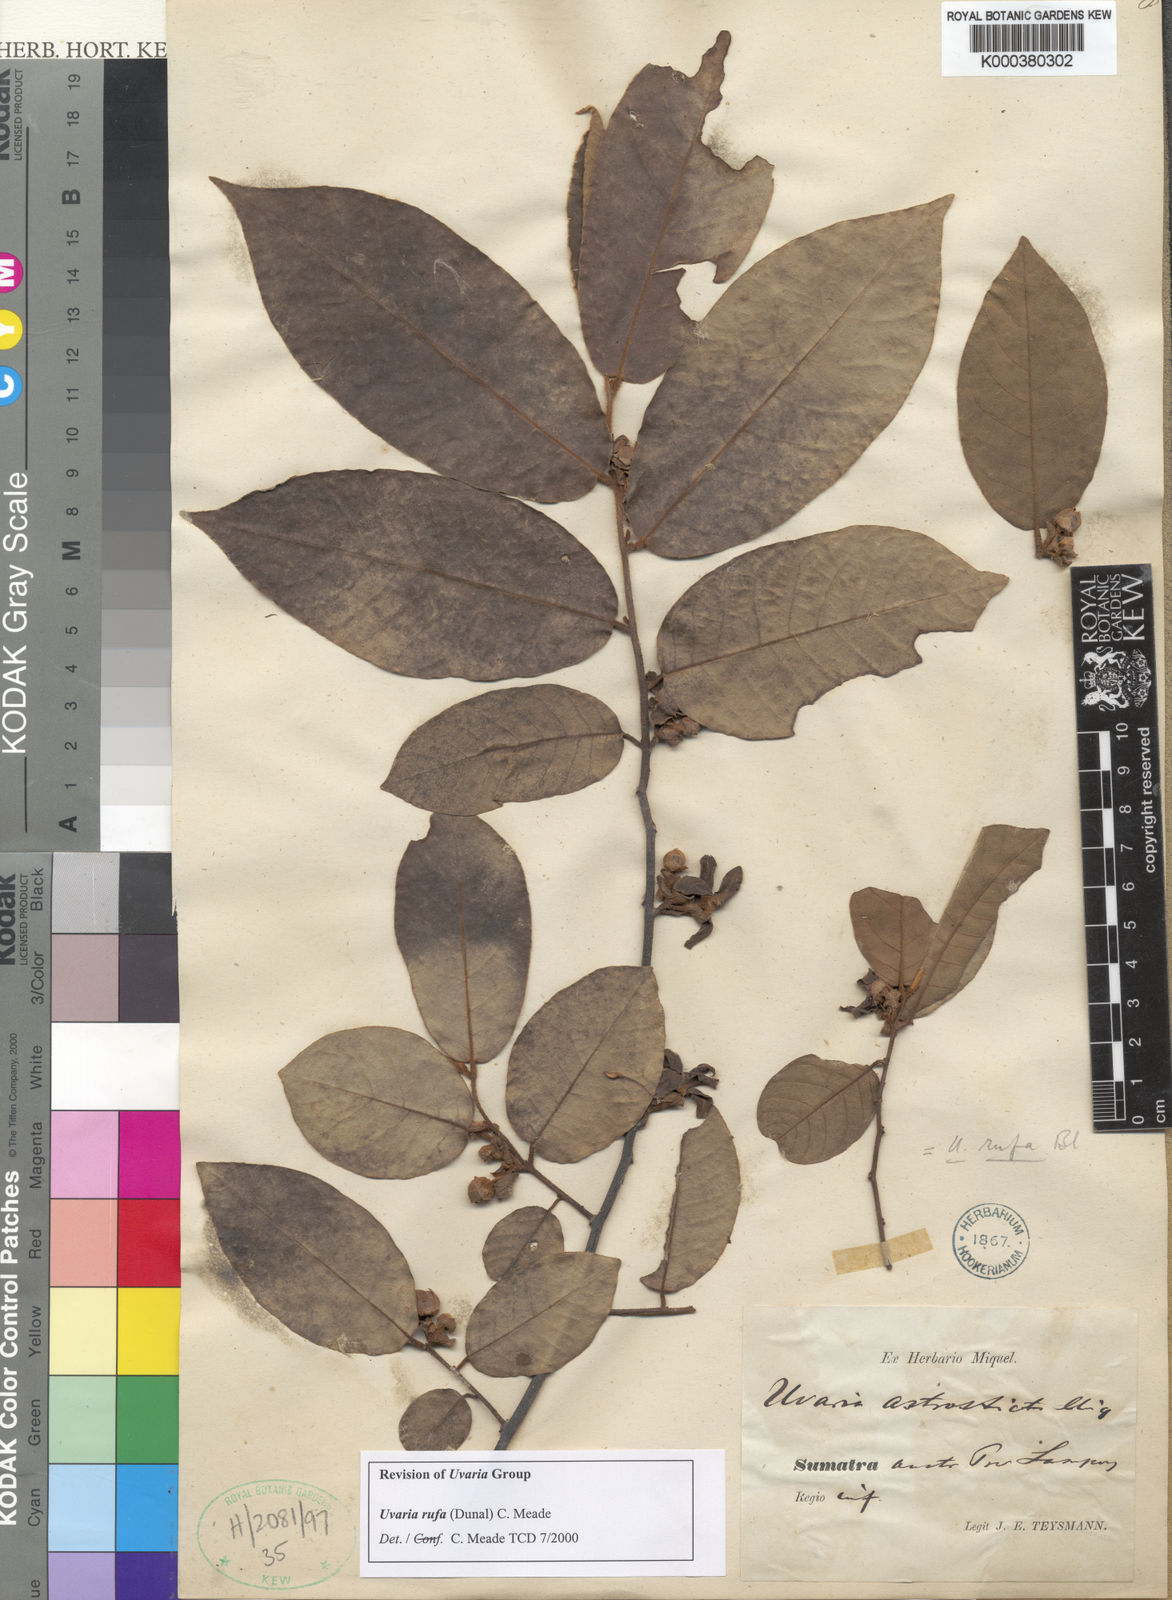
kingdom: Plantae
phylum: Tracheophyta
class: Magnoliopsida
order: Magnoliales
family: Annonaceae
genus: Uvaria
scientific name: Uvaria rufa
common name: Torres strait scrambler
